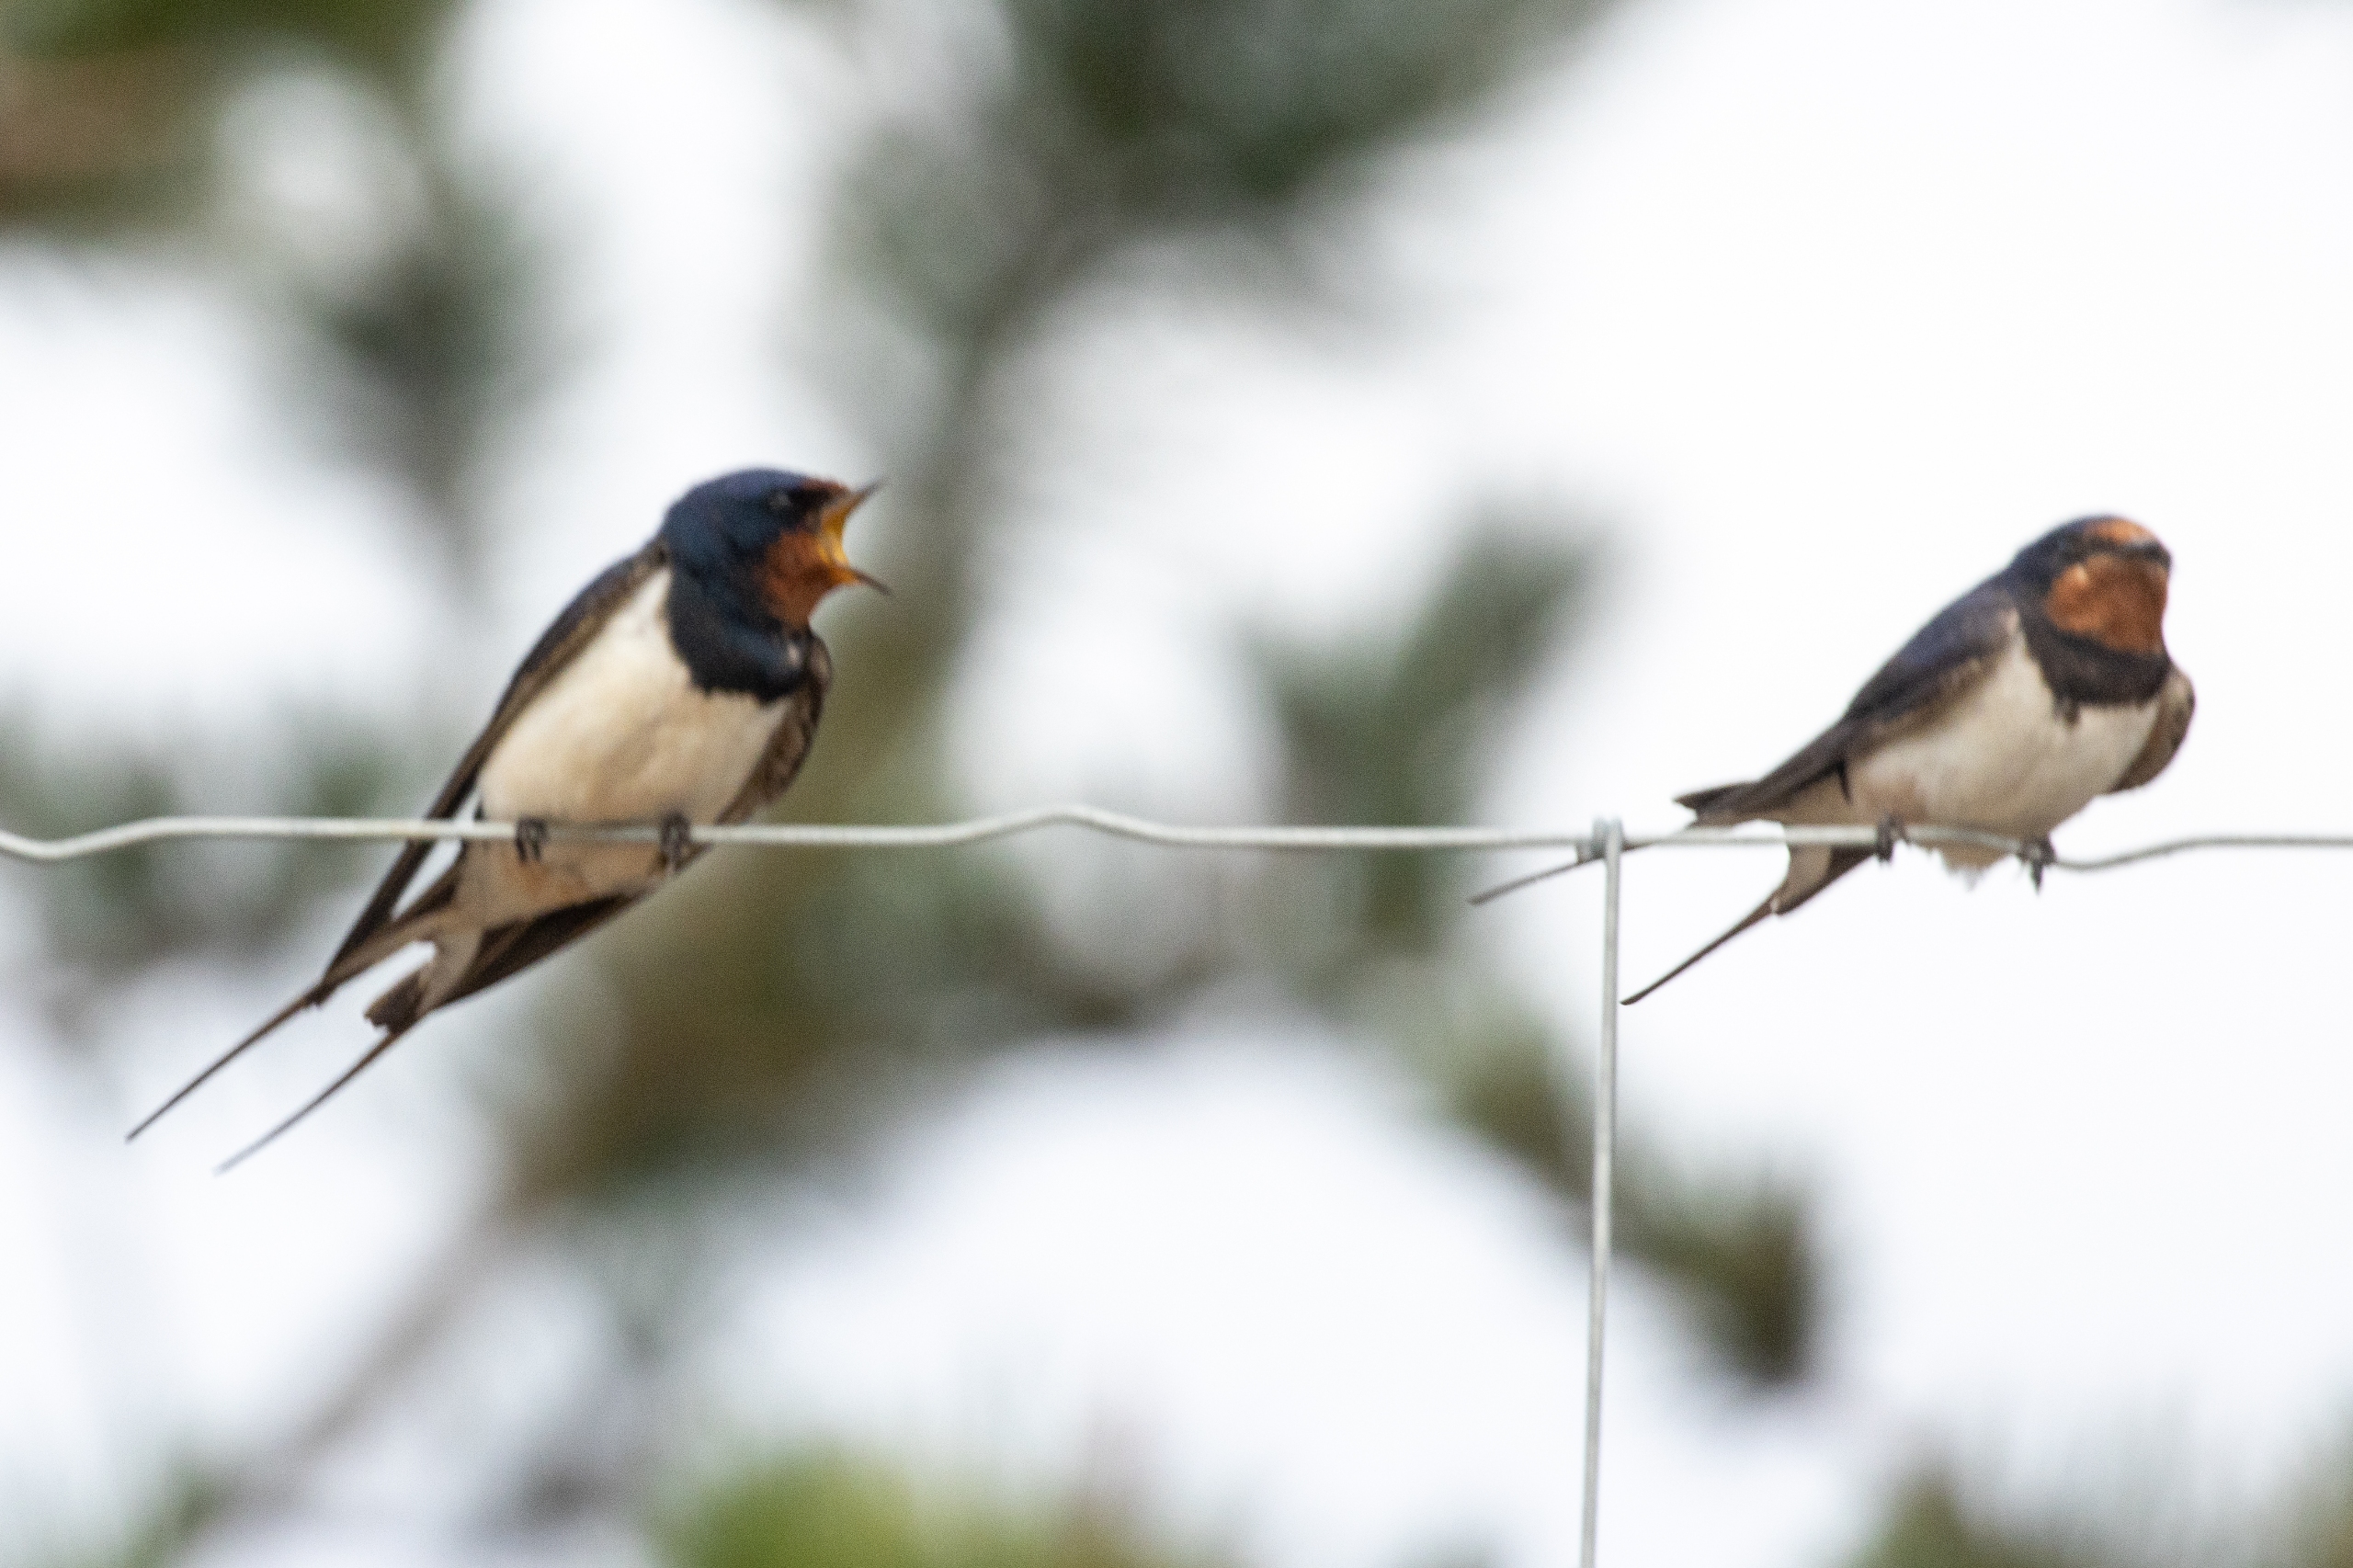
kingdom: Animalia
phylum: Chordata
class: Aves
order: Passeriformes
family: Hirundinidae
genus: Hirundo
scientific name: Hirundo rustica
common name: Landsvale
